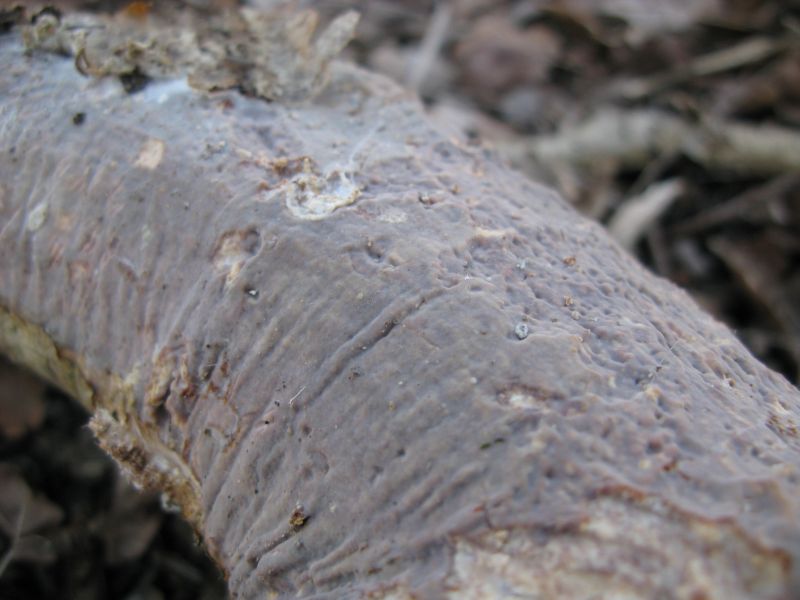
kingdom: Fungi
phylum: Basidiomycota
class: Agaricomycetes
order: Corticiales
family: Vuilleminiaceae
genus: Vuilleminia
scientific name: Vuilleminia comedens
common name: almindelig barksprænger
